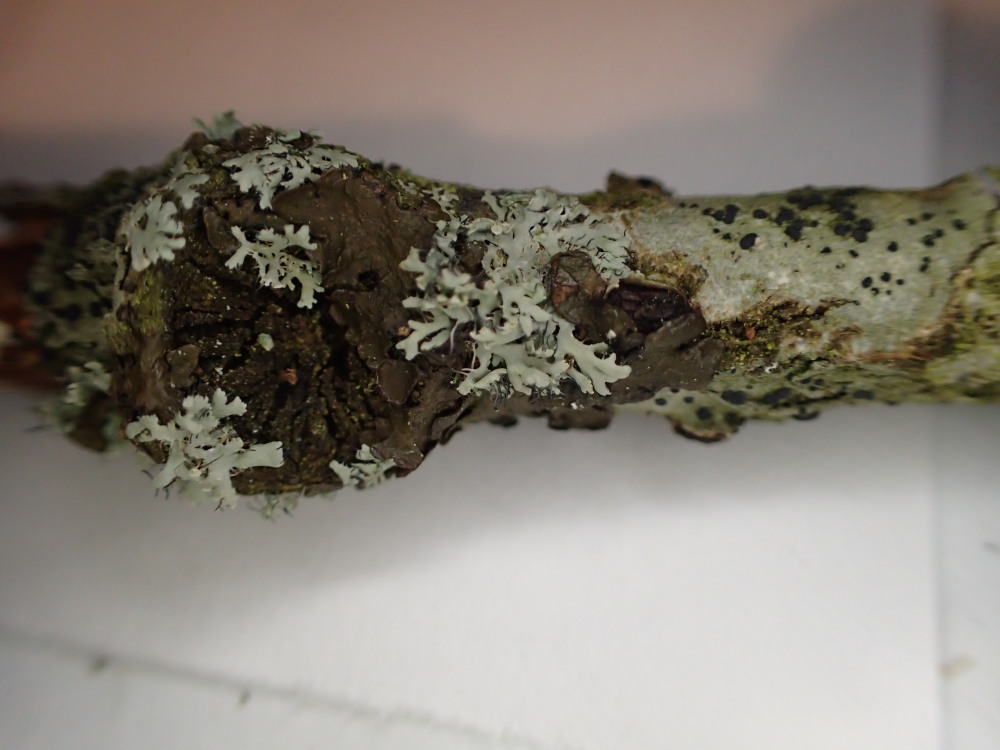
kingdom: Fungi
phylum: Ascomycota
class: Lecanoromycetes
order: Caliciales
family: Physciaceae
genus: Physcia
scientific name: Physcia tenella
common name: spæd rosetlav
